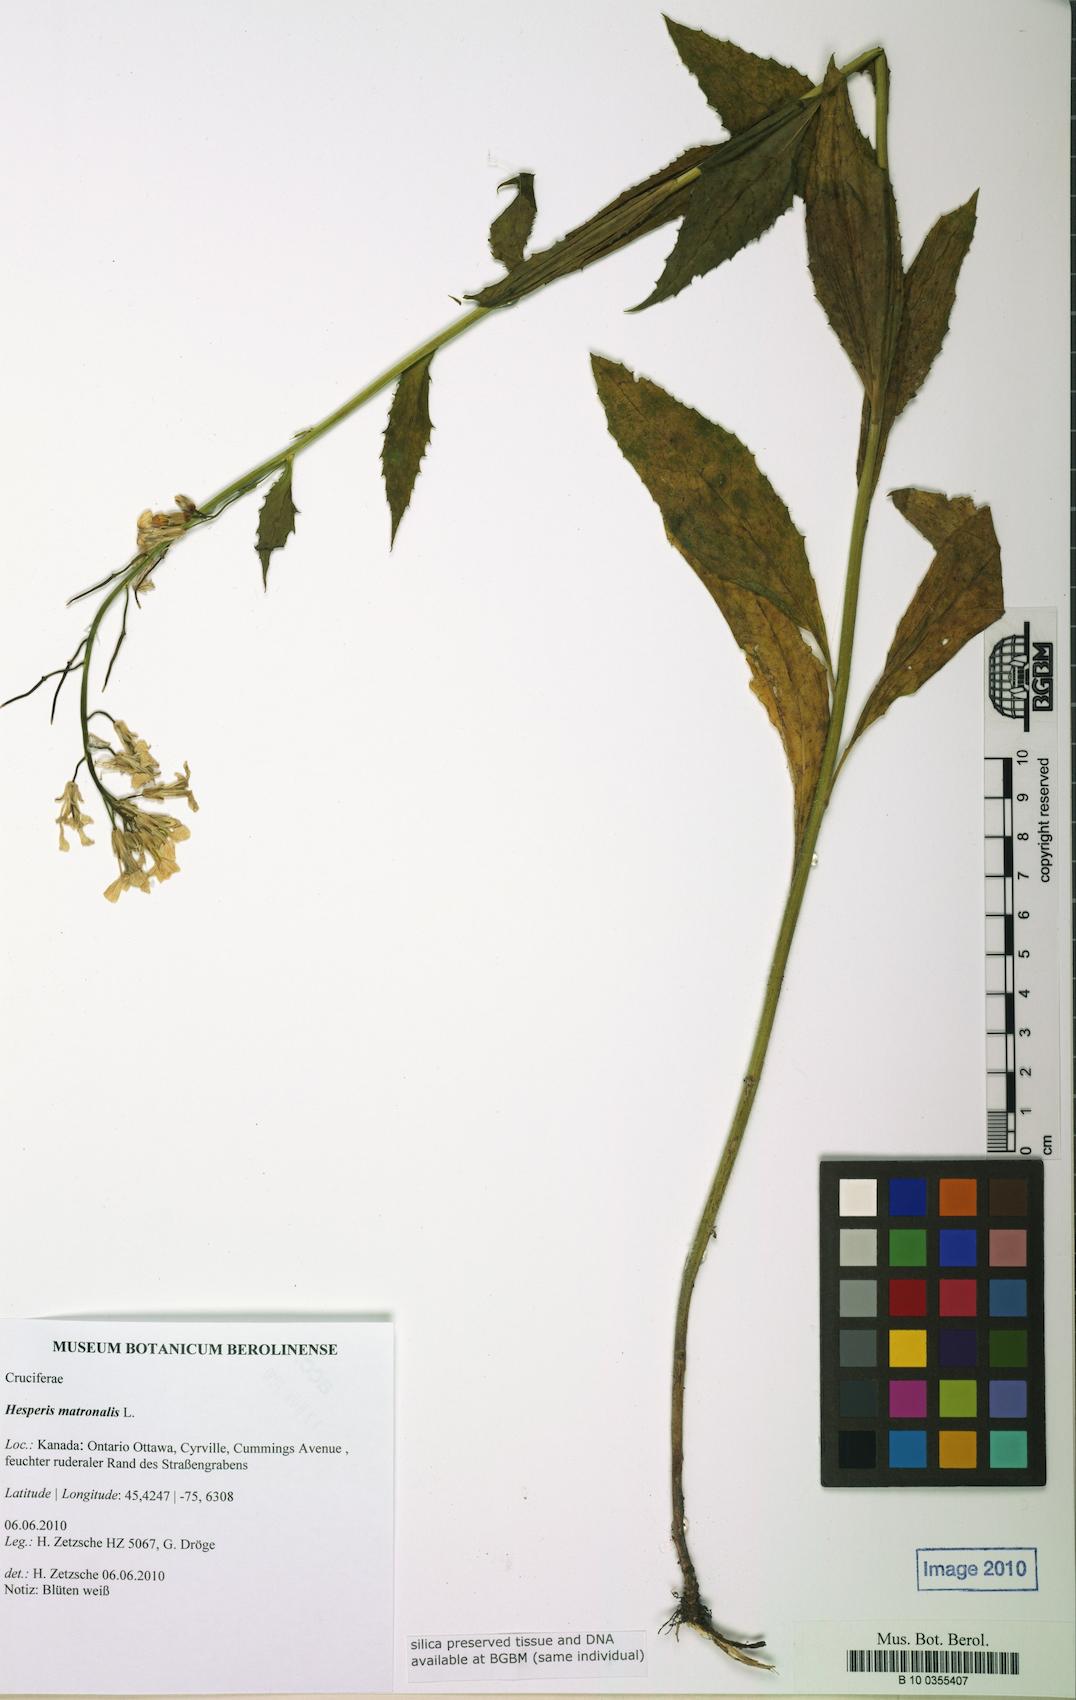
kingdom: Plantae
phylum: Tracheophyta
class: Magnoliopsida
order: Brassicales
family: Brassicaceae
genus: Hesperis
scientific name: Hesperis matronalis
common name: Dame's-violet
